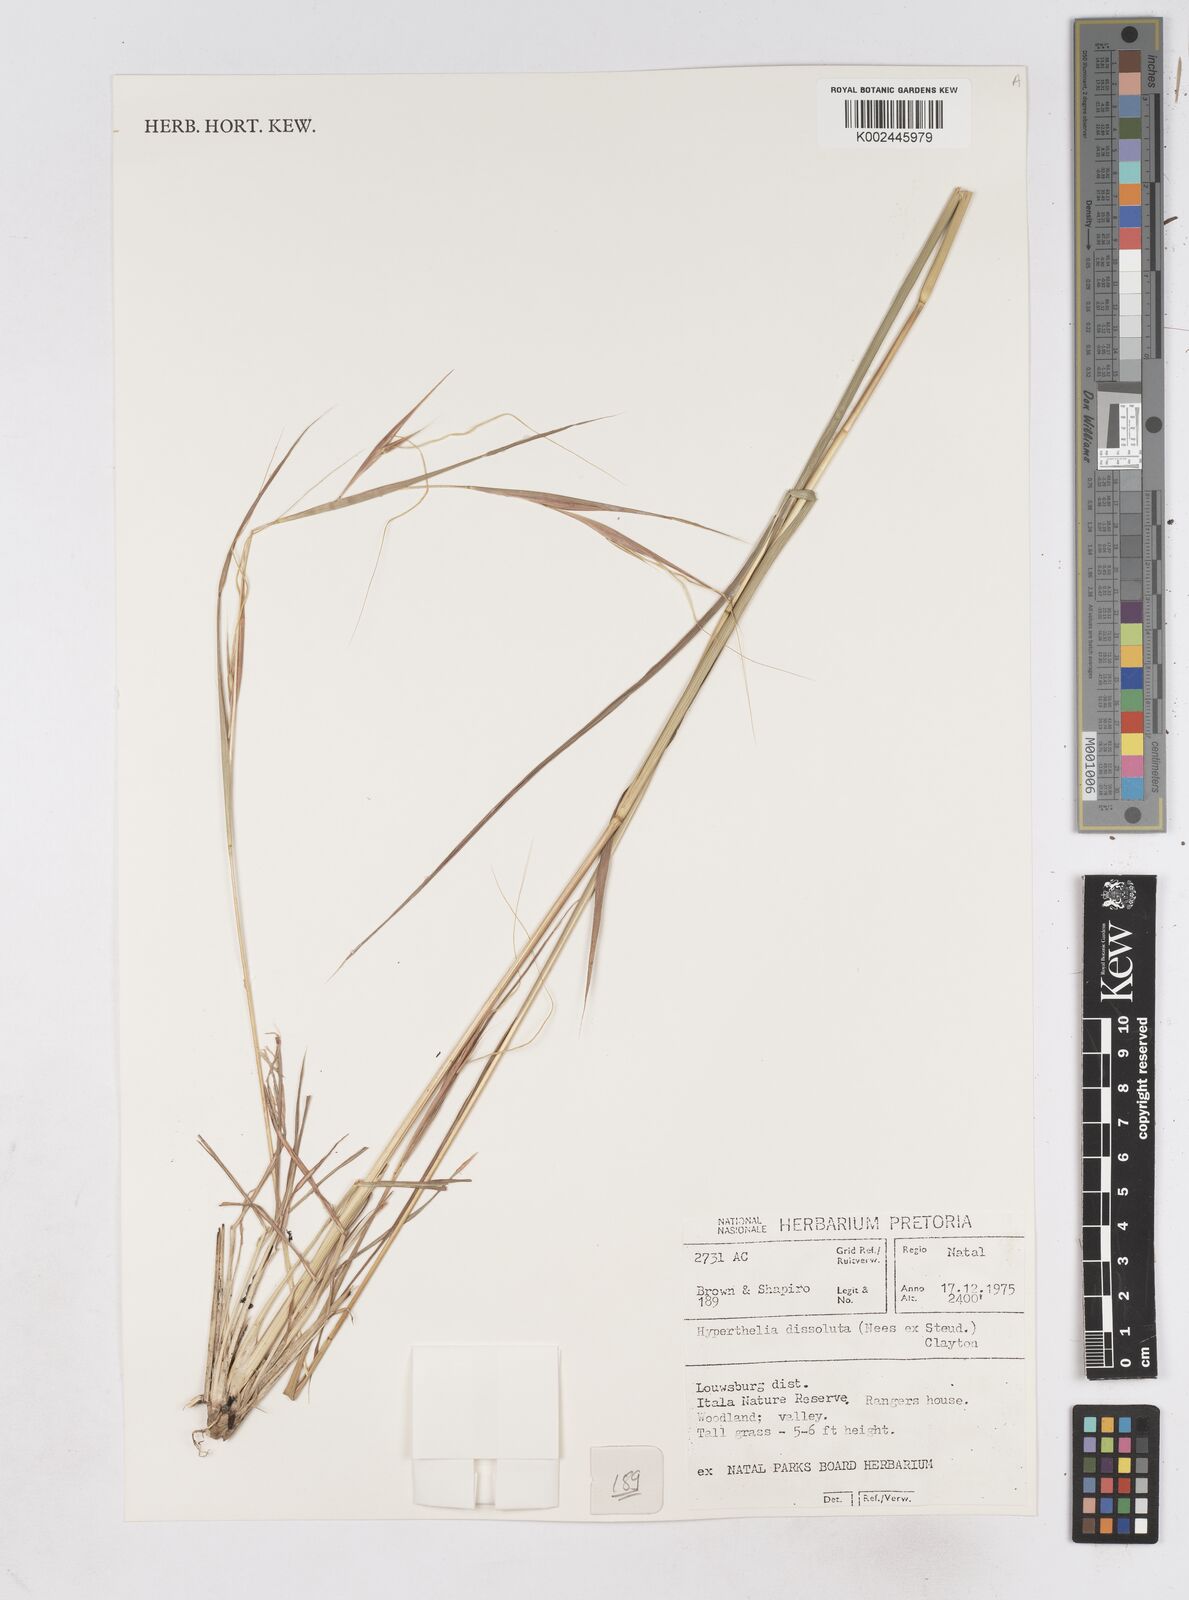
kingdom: Plantae
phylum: Tracheophyta
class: Liliopsida
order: Poales
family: Poaceae
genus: Hyperthelia
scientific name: Hyperthelia dissoluta
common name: Yellow thatching grass
